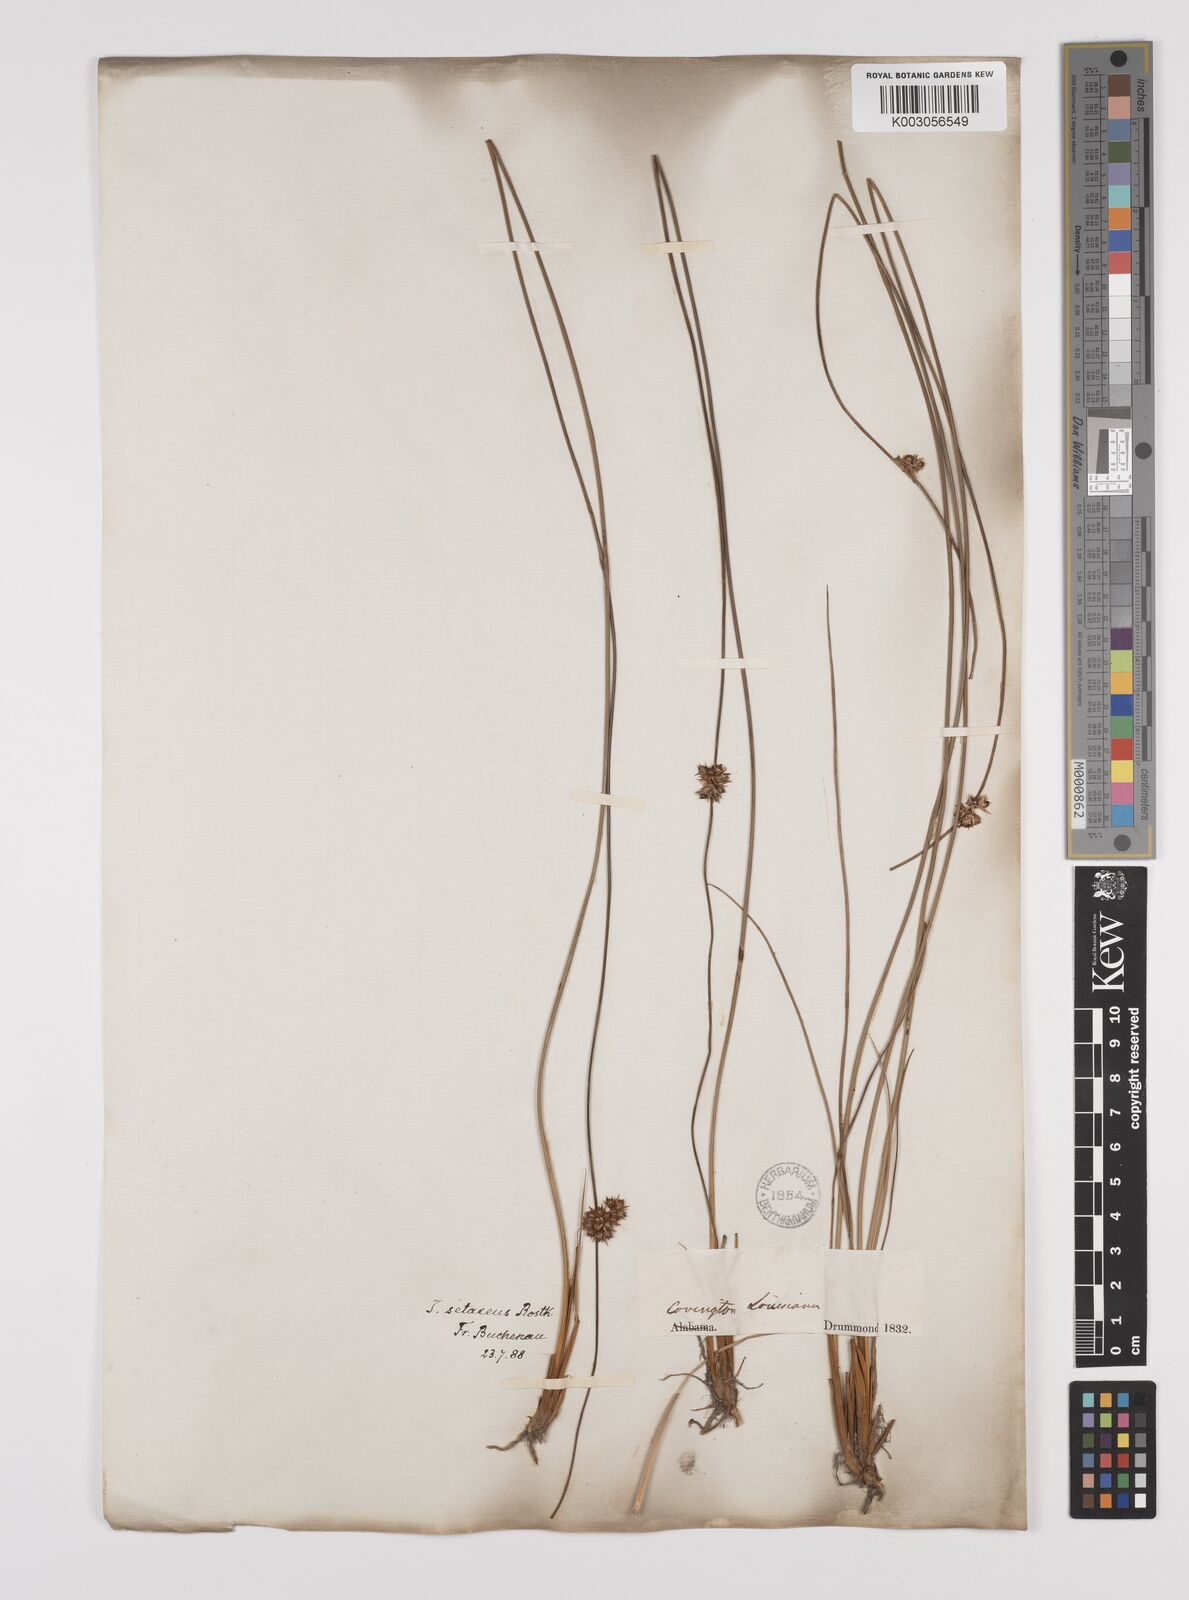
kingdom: Plantae
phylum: Tracheophyta
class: Liliopsida
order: Poales
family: Juncaceae
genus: Juncus
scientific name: Juncus balticus
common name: Baltic rush
